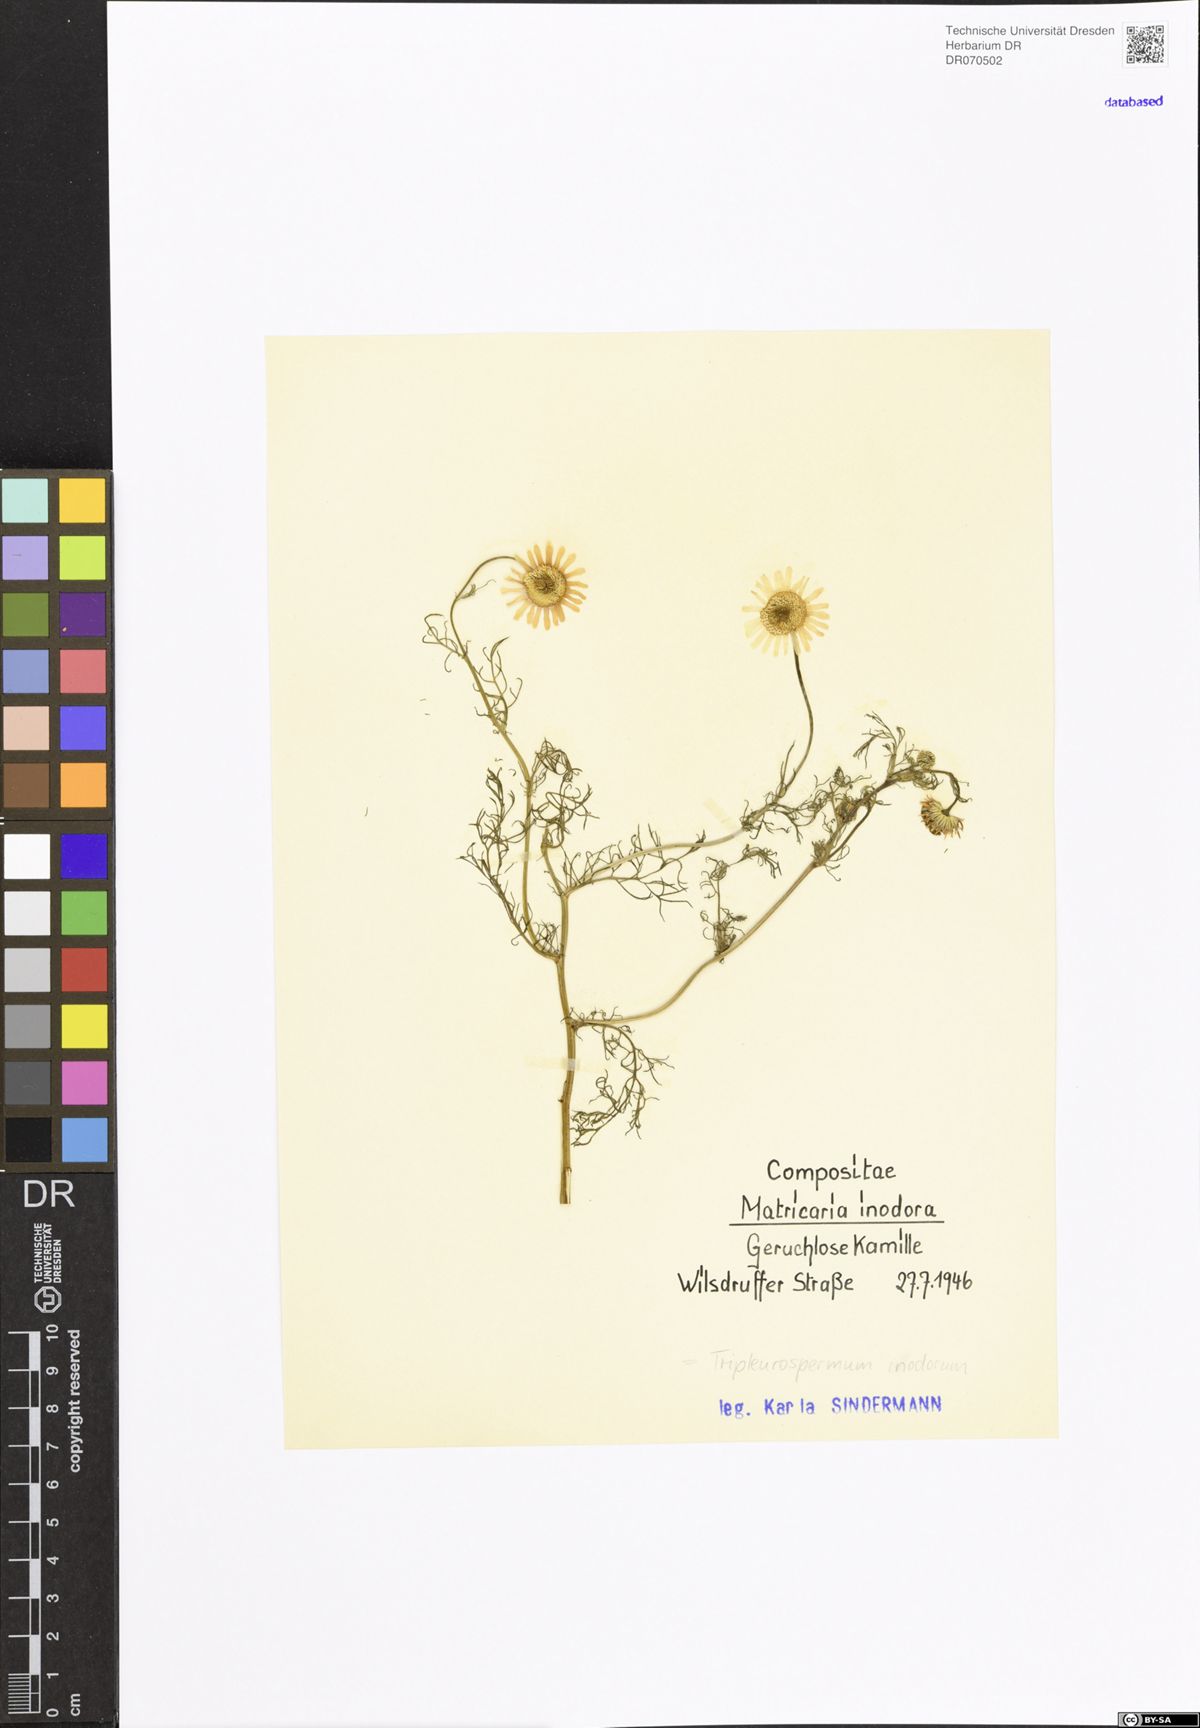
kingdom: Plantae
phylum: Tracheophyta
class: Magnoliopsida
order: Asterales
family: Asteraceae
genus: Tripleurospermum
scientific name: Tripleurospermum inodorum
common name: Scentless mayweed
